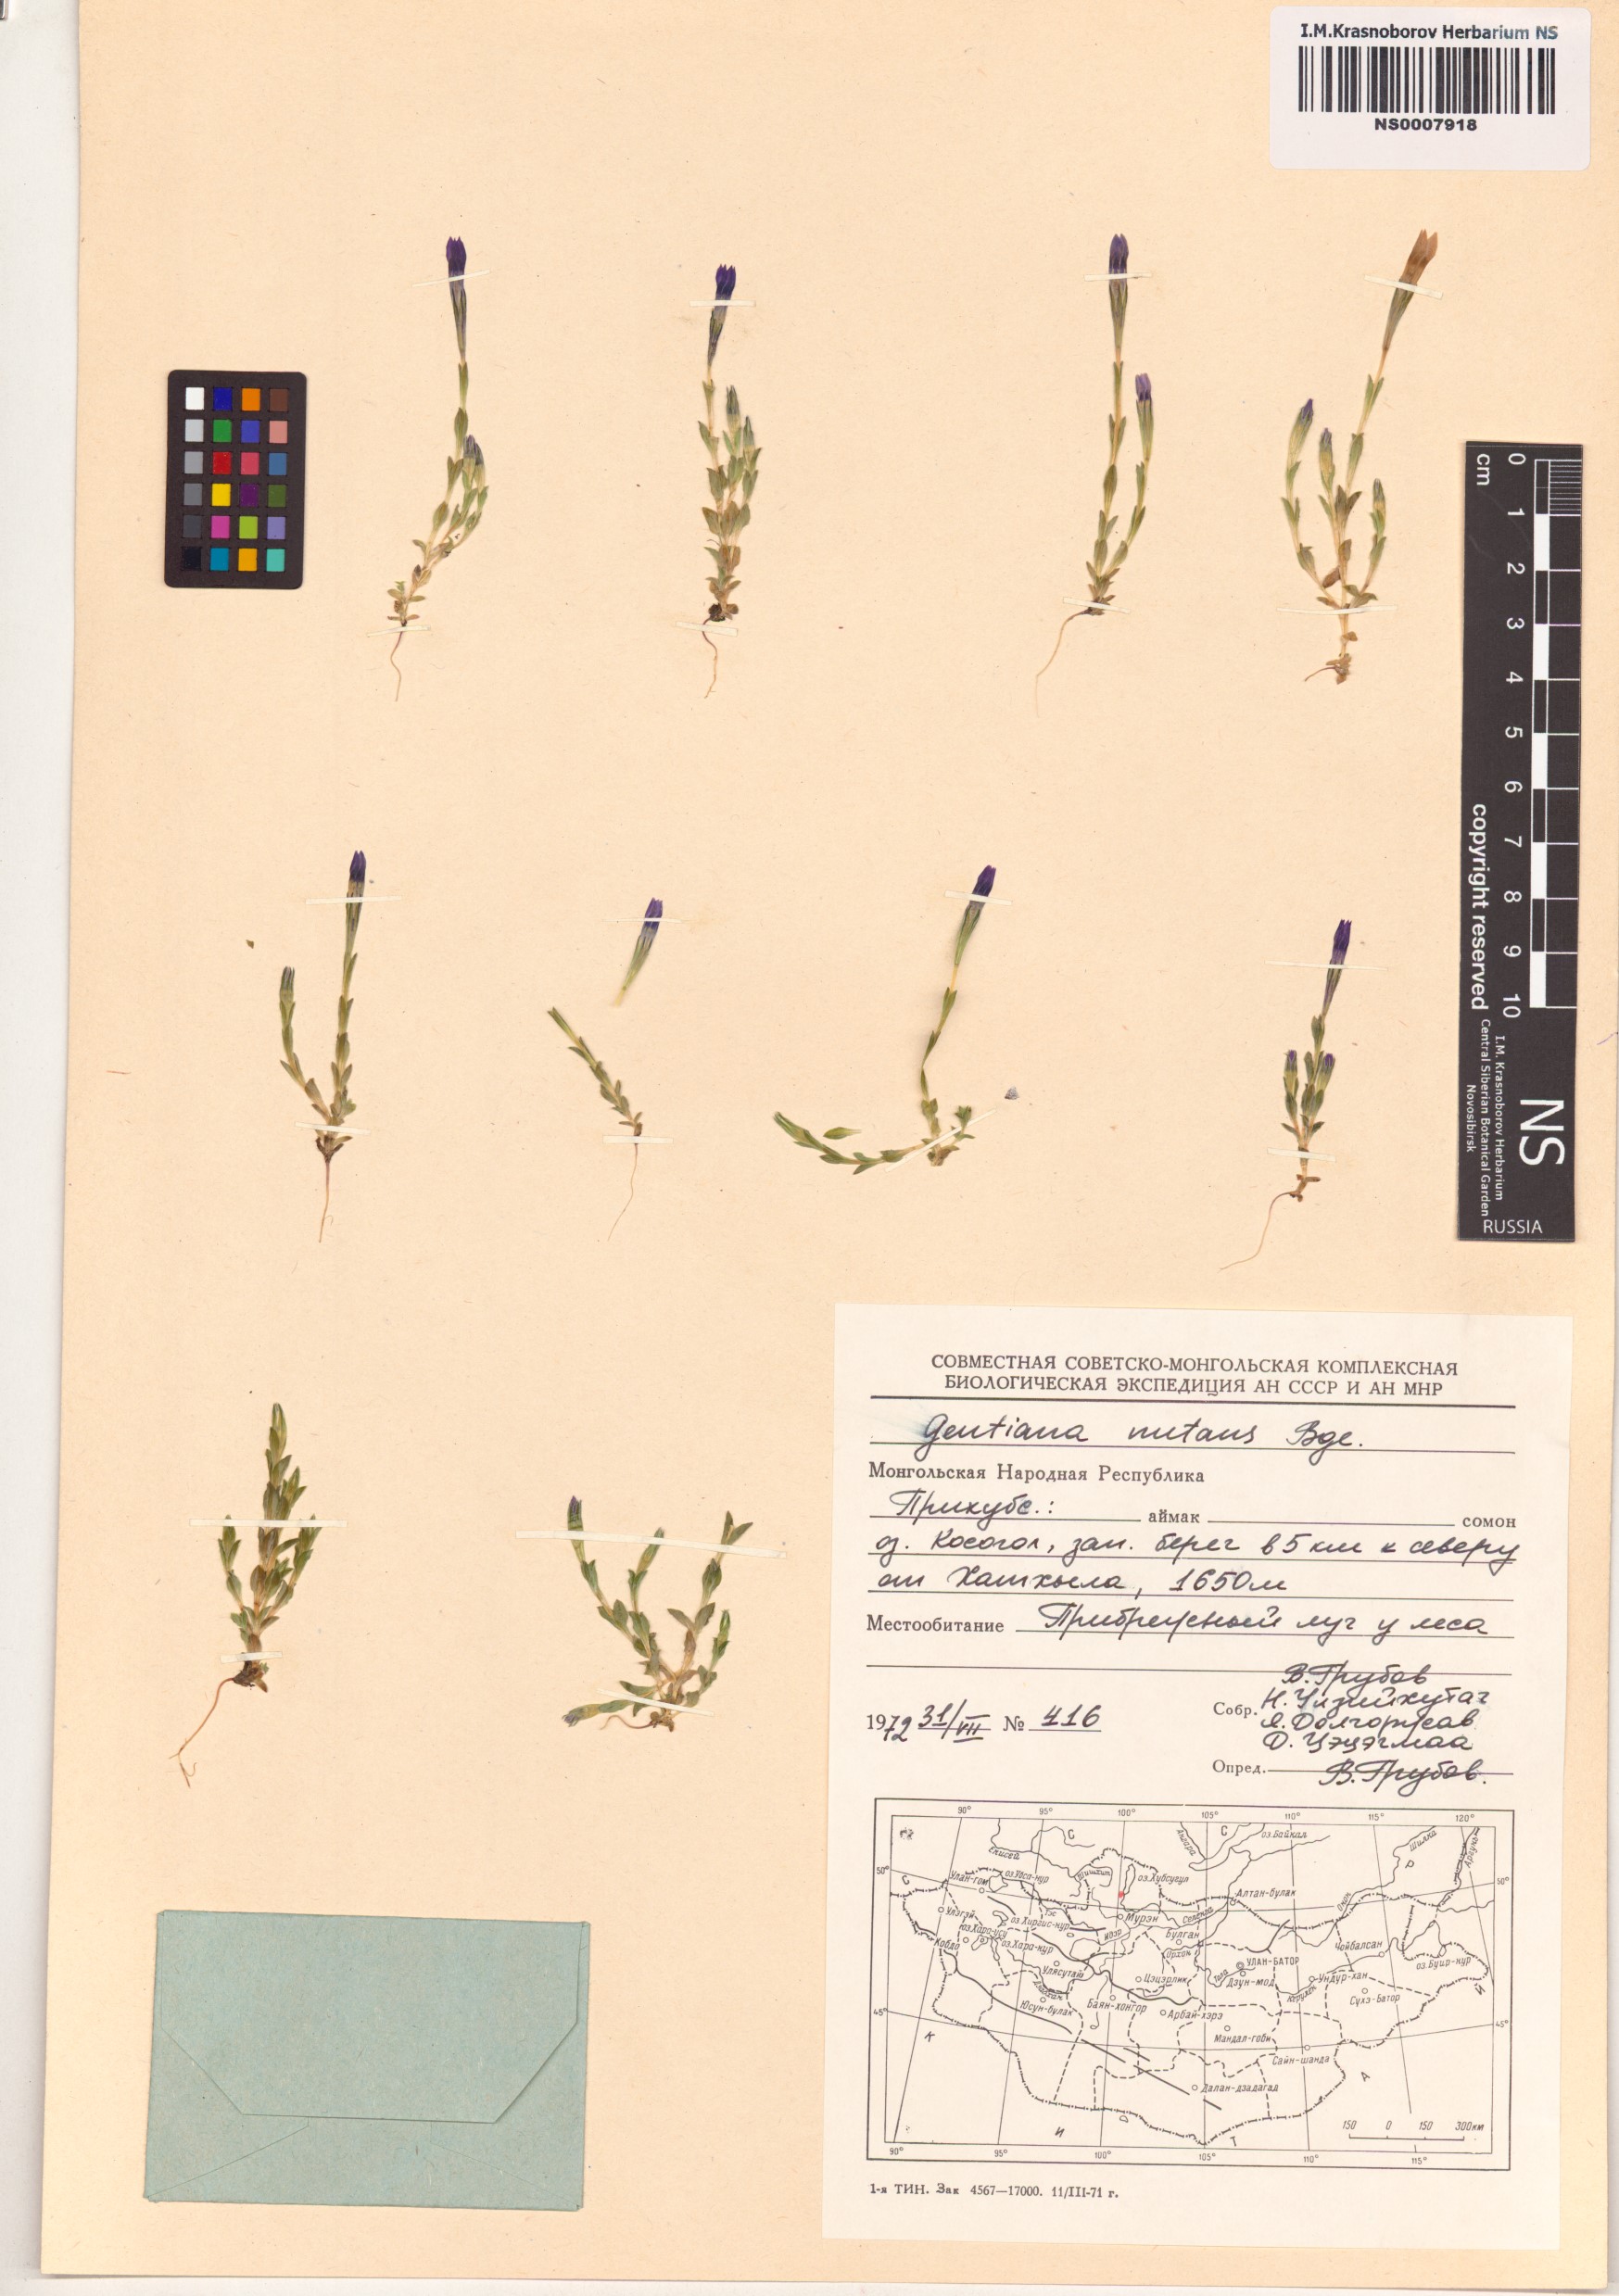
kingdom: Plantae
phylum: Tracheophyta
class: Magnoliopsida
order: Gentianales
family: Gentianaceae
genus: Gentiana
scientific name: Gentiana prostrata
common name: Moss gentian
